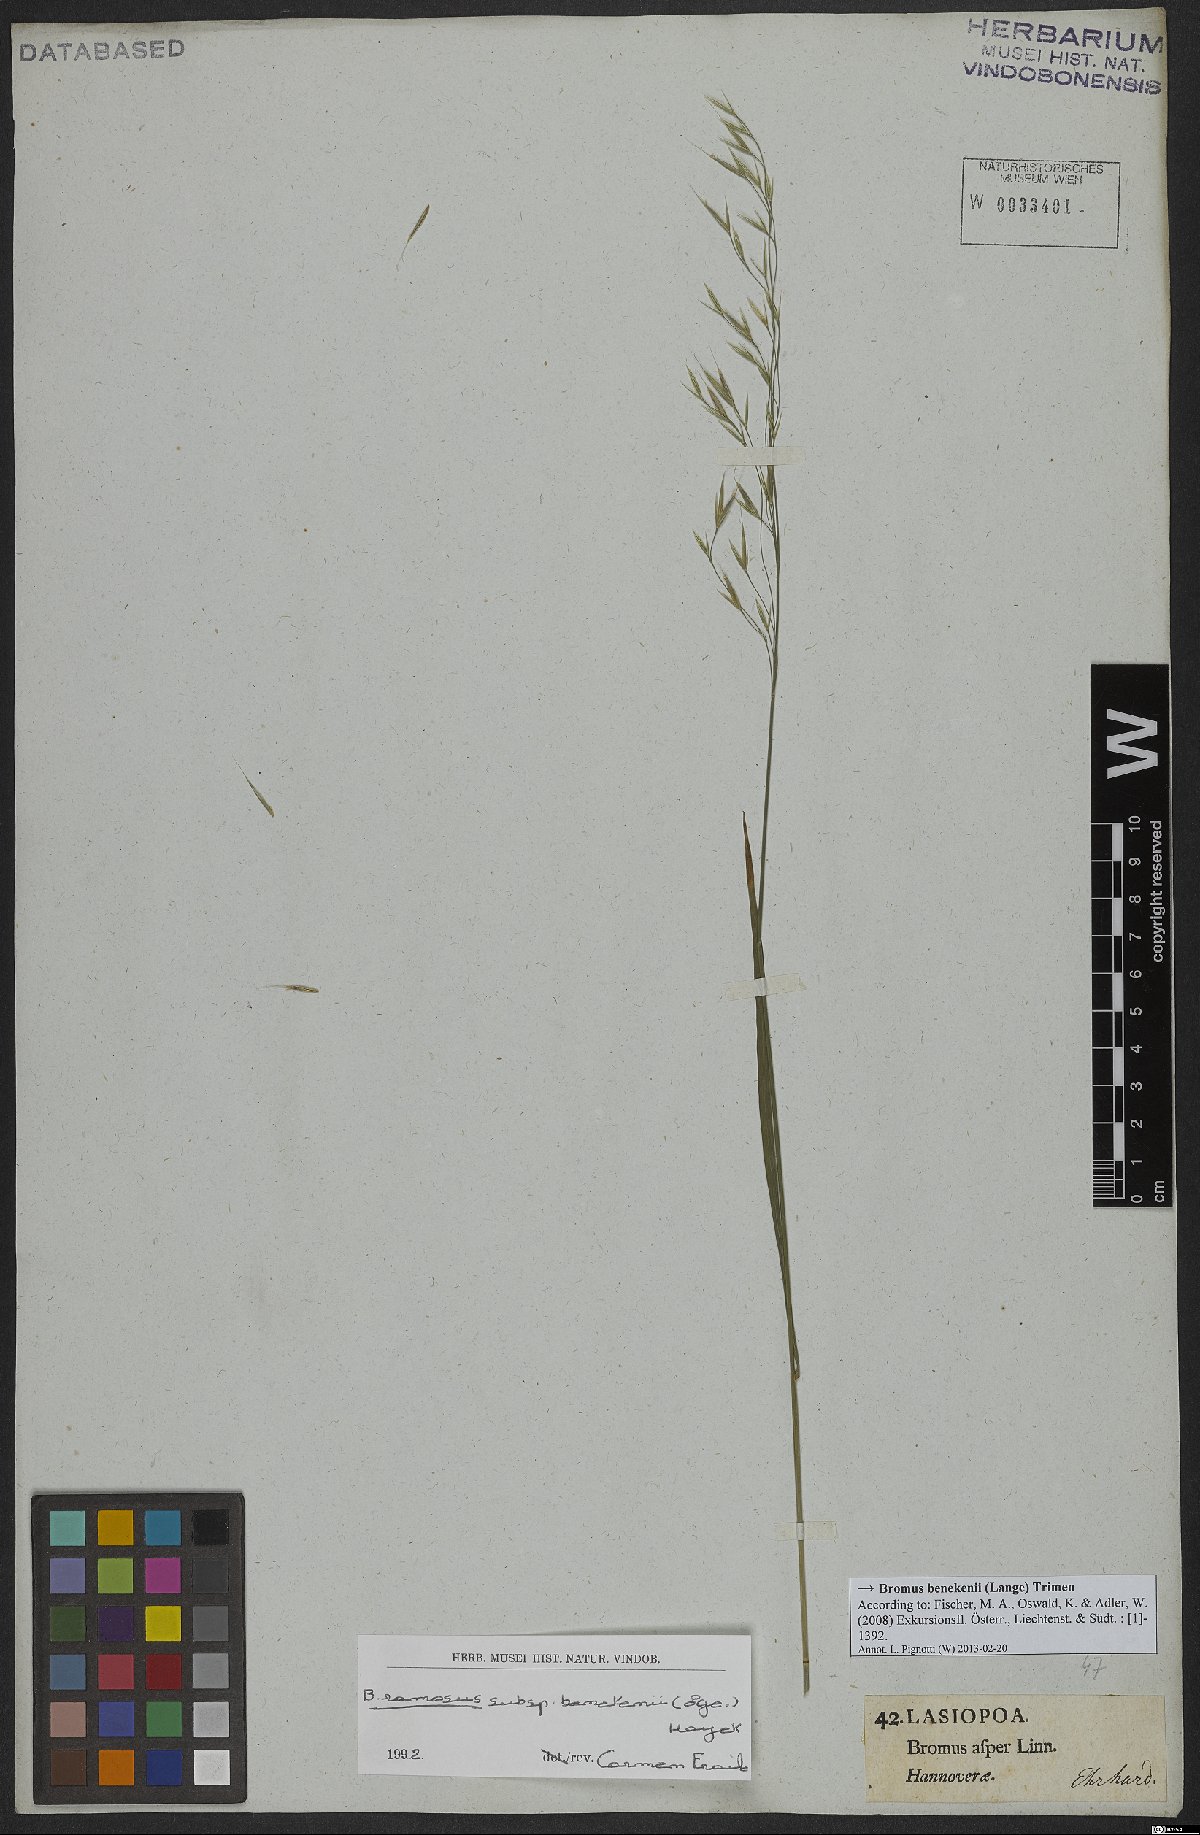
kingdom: Plantae
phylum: Tracheophyta
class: Liliopsida
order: Poales
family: Poaceae
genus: Bromus
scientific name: Bromus benekenii
